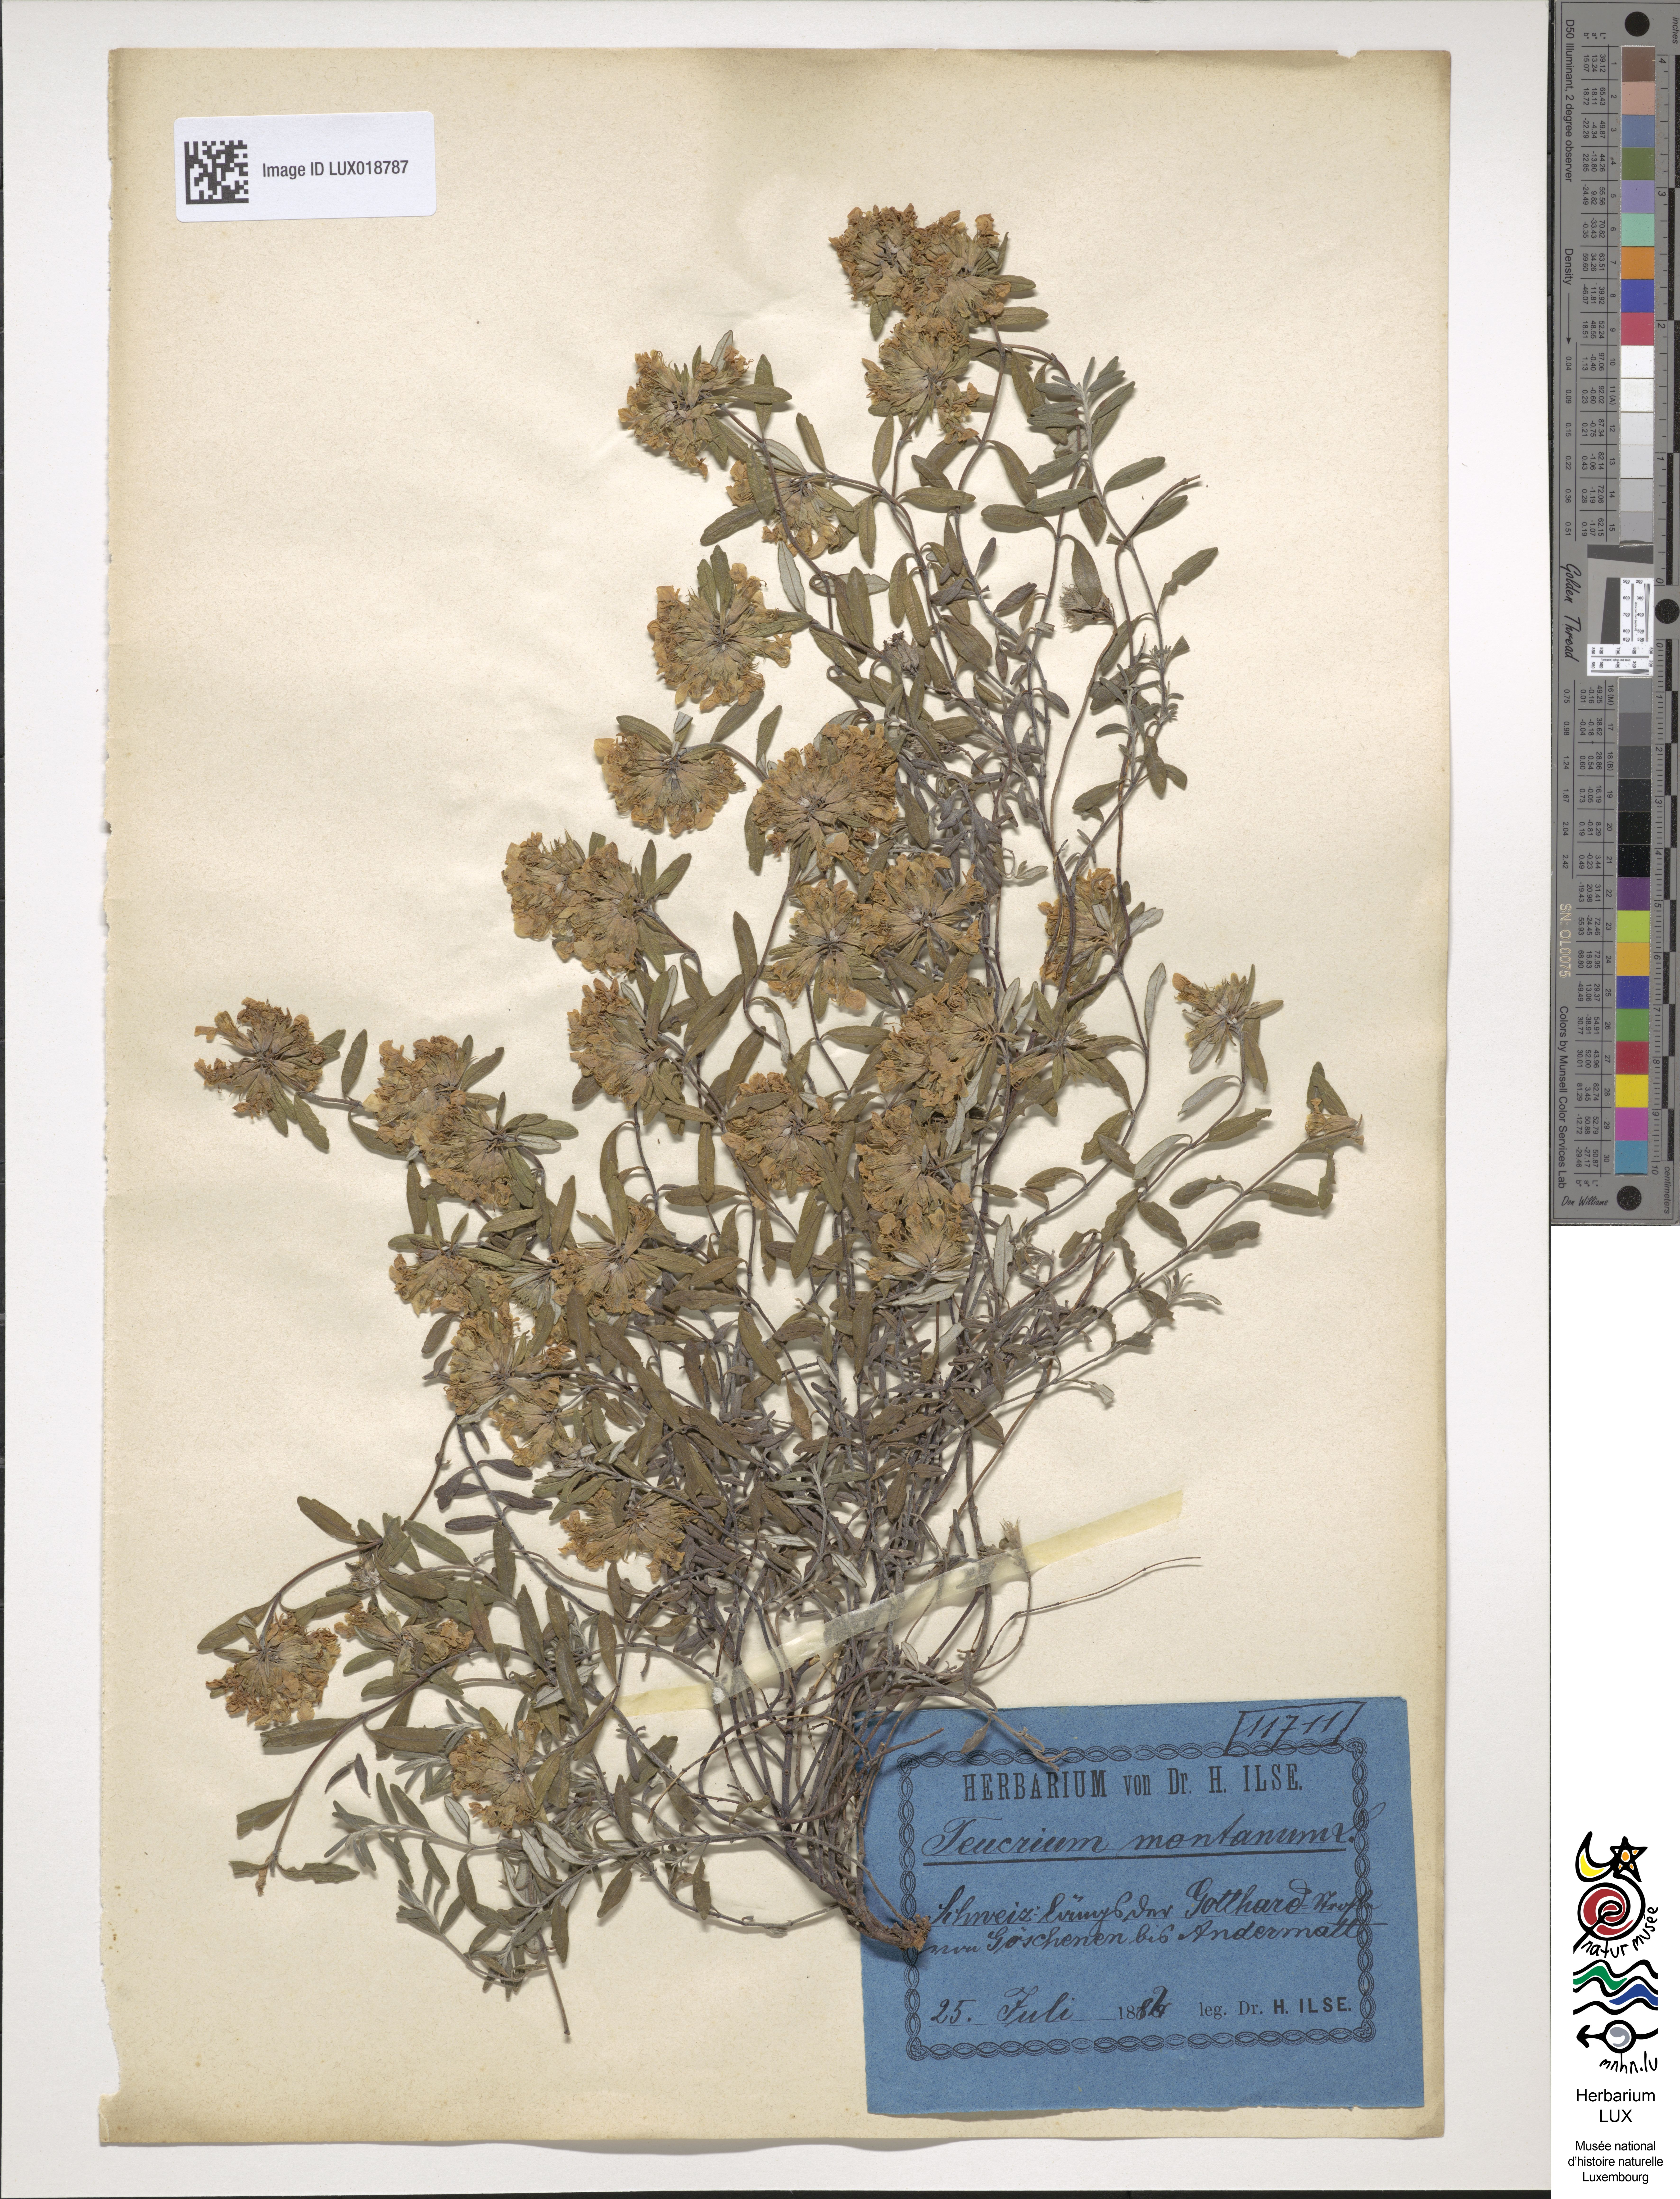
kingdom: Plantae
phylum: Tracheophyta
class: Magnoliopsida
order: Lamiales
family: Lamiaceae
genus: Teucrium
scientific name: Teucrium montanum
